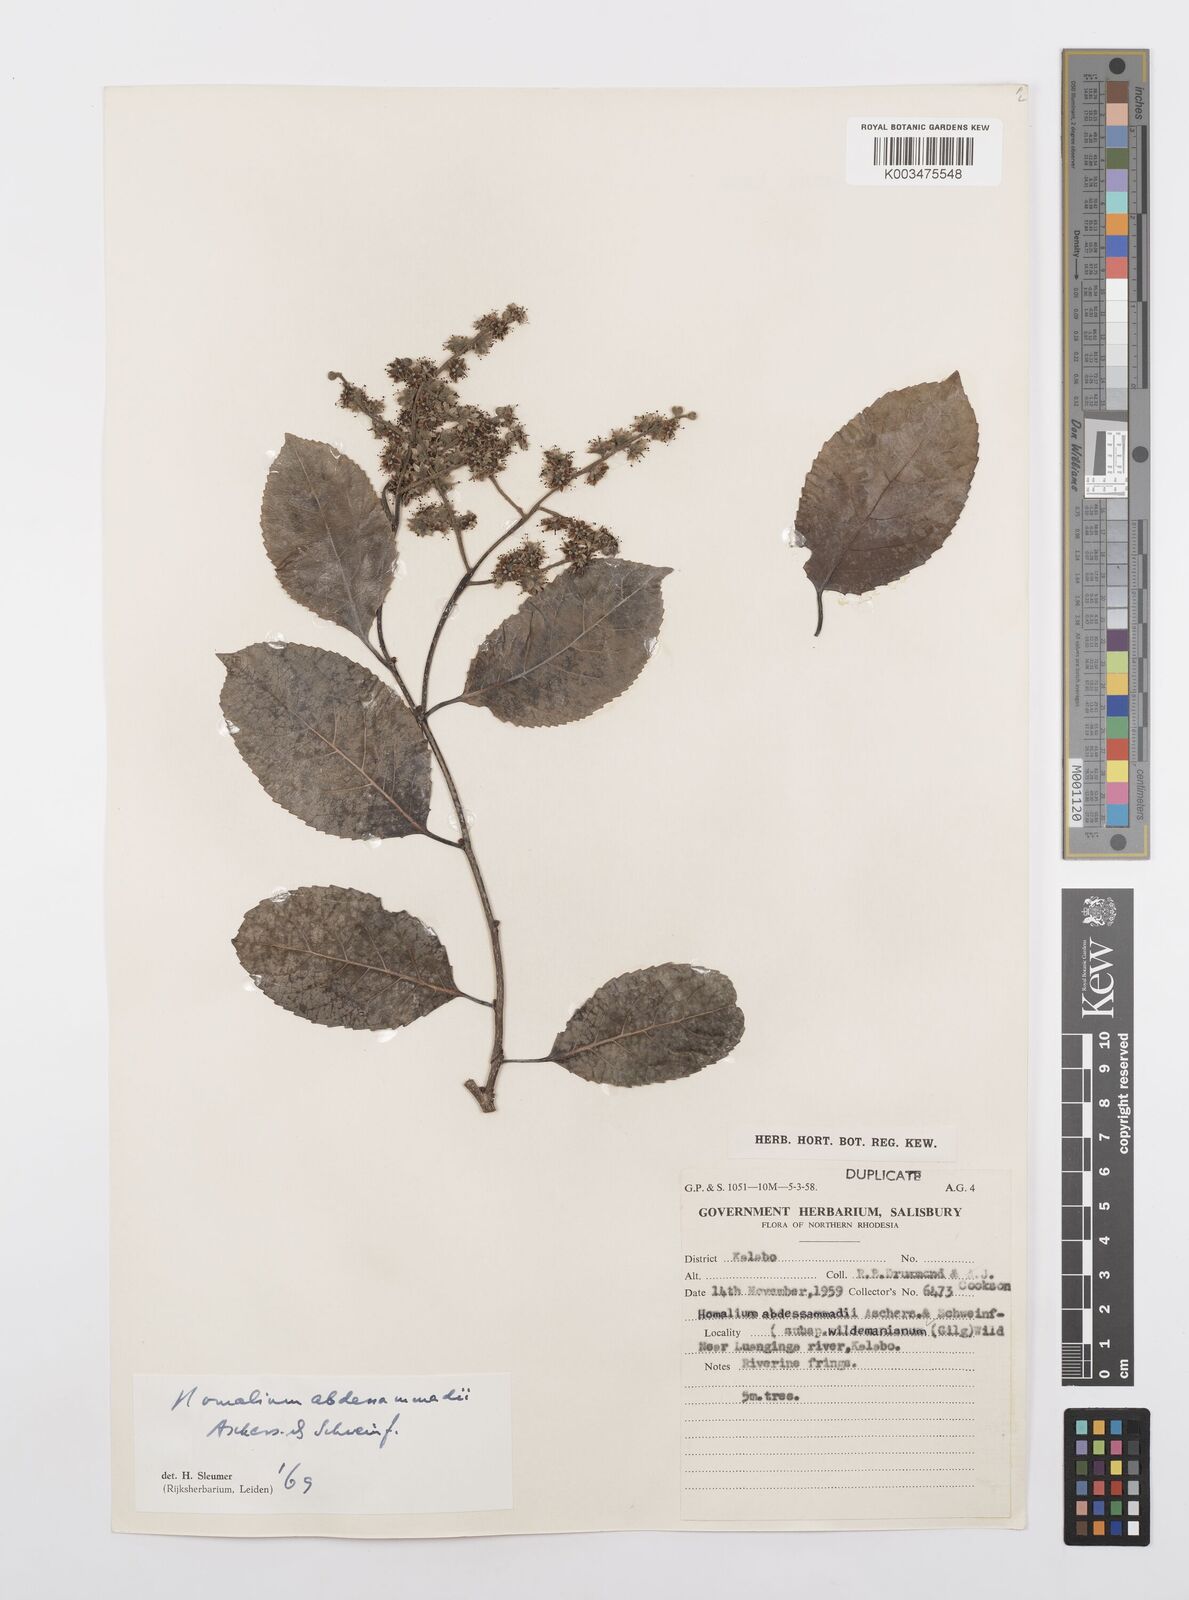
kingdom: Plantae
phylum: Tracheophyta
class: Magnoliopsida
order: Malpighiales
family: Salicaceae
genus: Homalium
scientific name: Homalium abdessammadii
